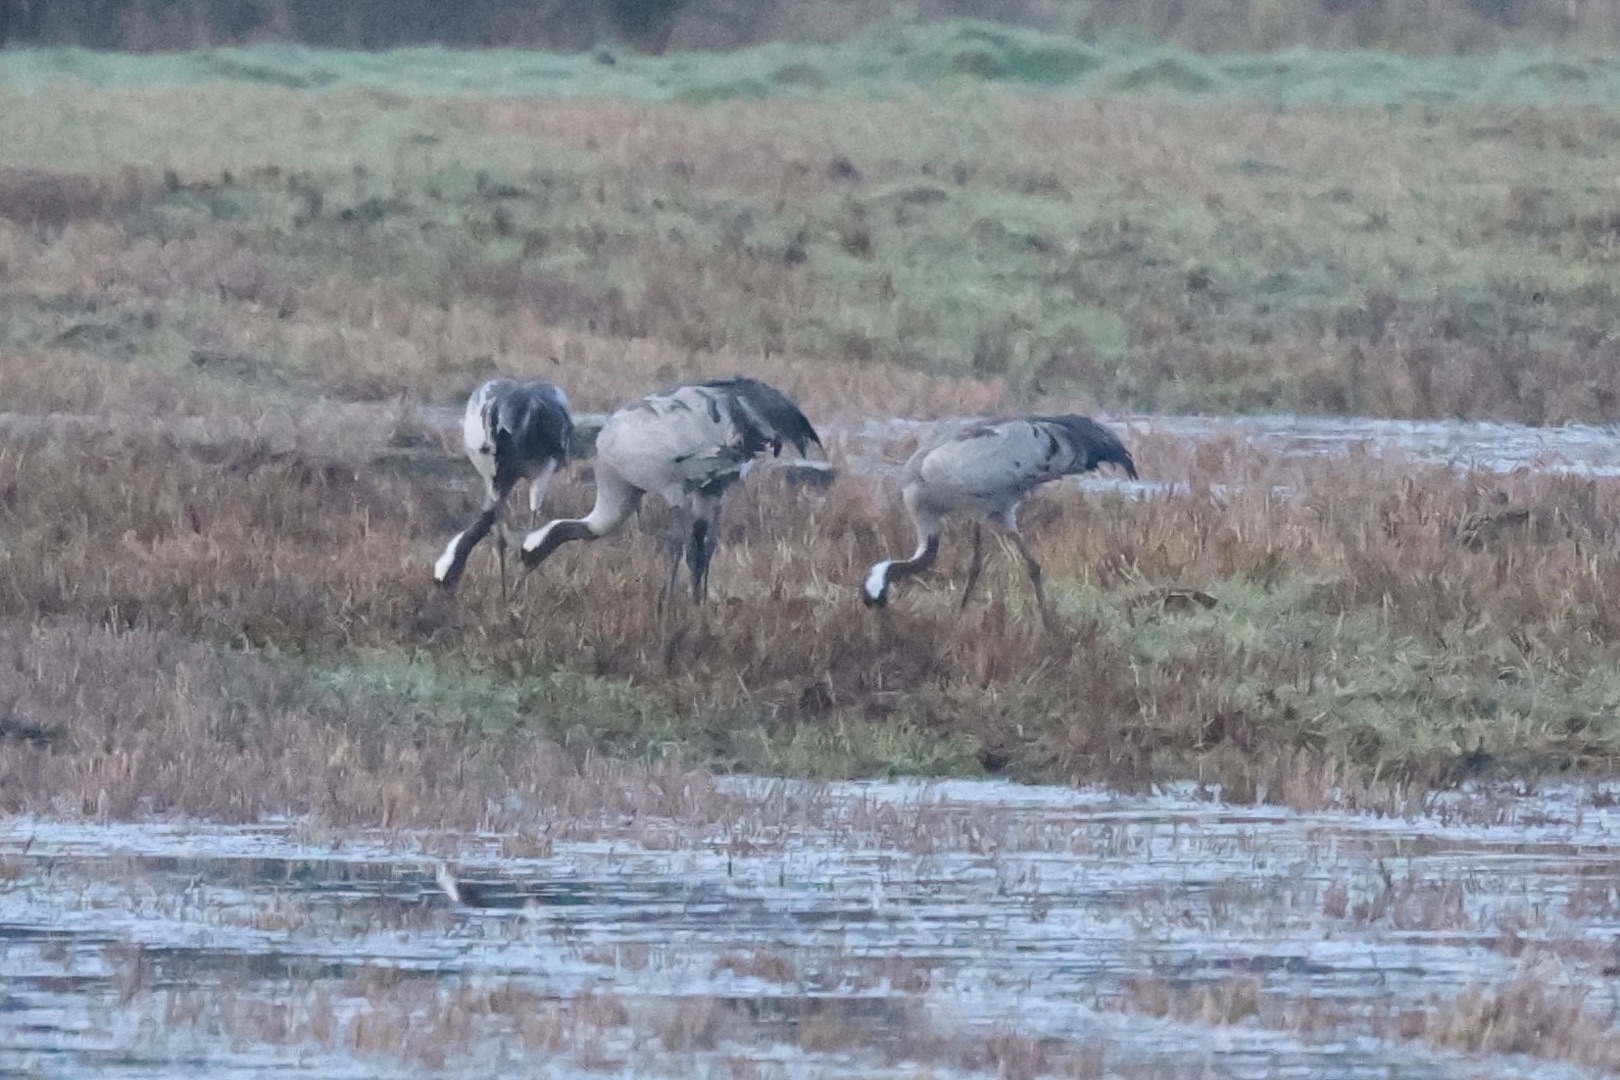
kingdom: Animalia
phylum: Chordata
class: Aves
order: Gruiformes
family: Gruidae
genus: Grus
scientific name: Grus grus
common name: Trane
